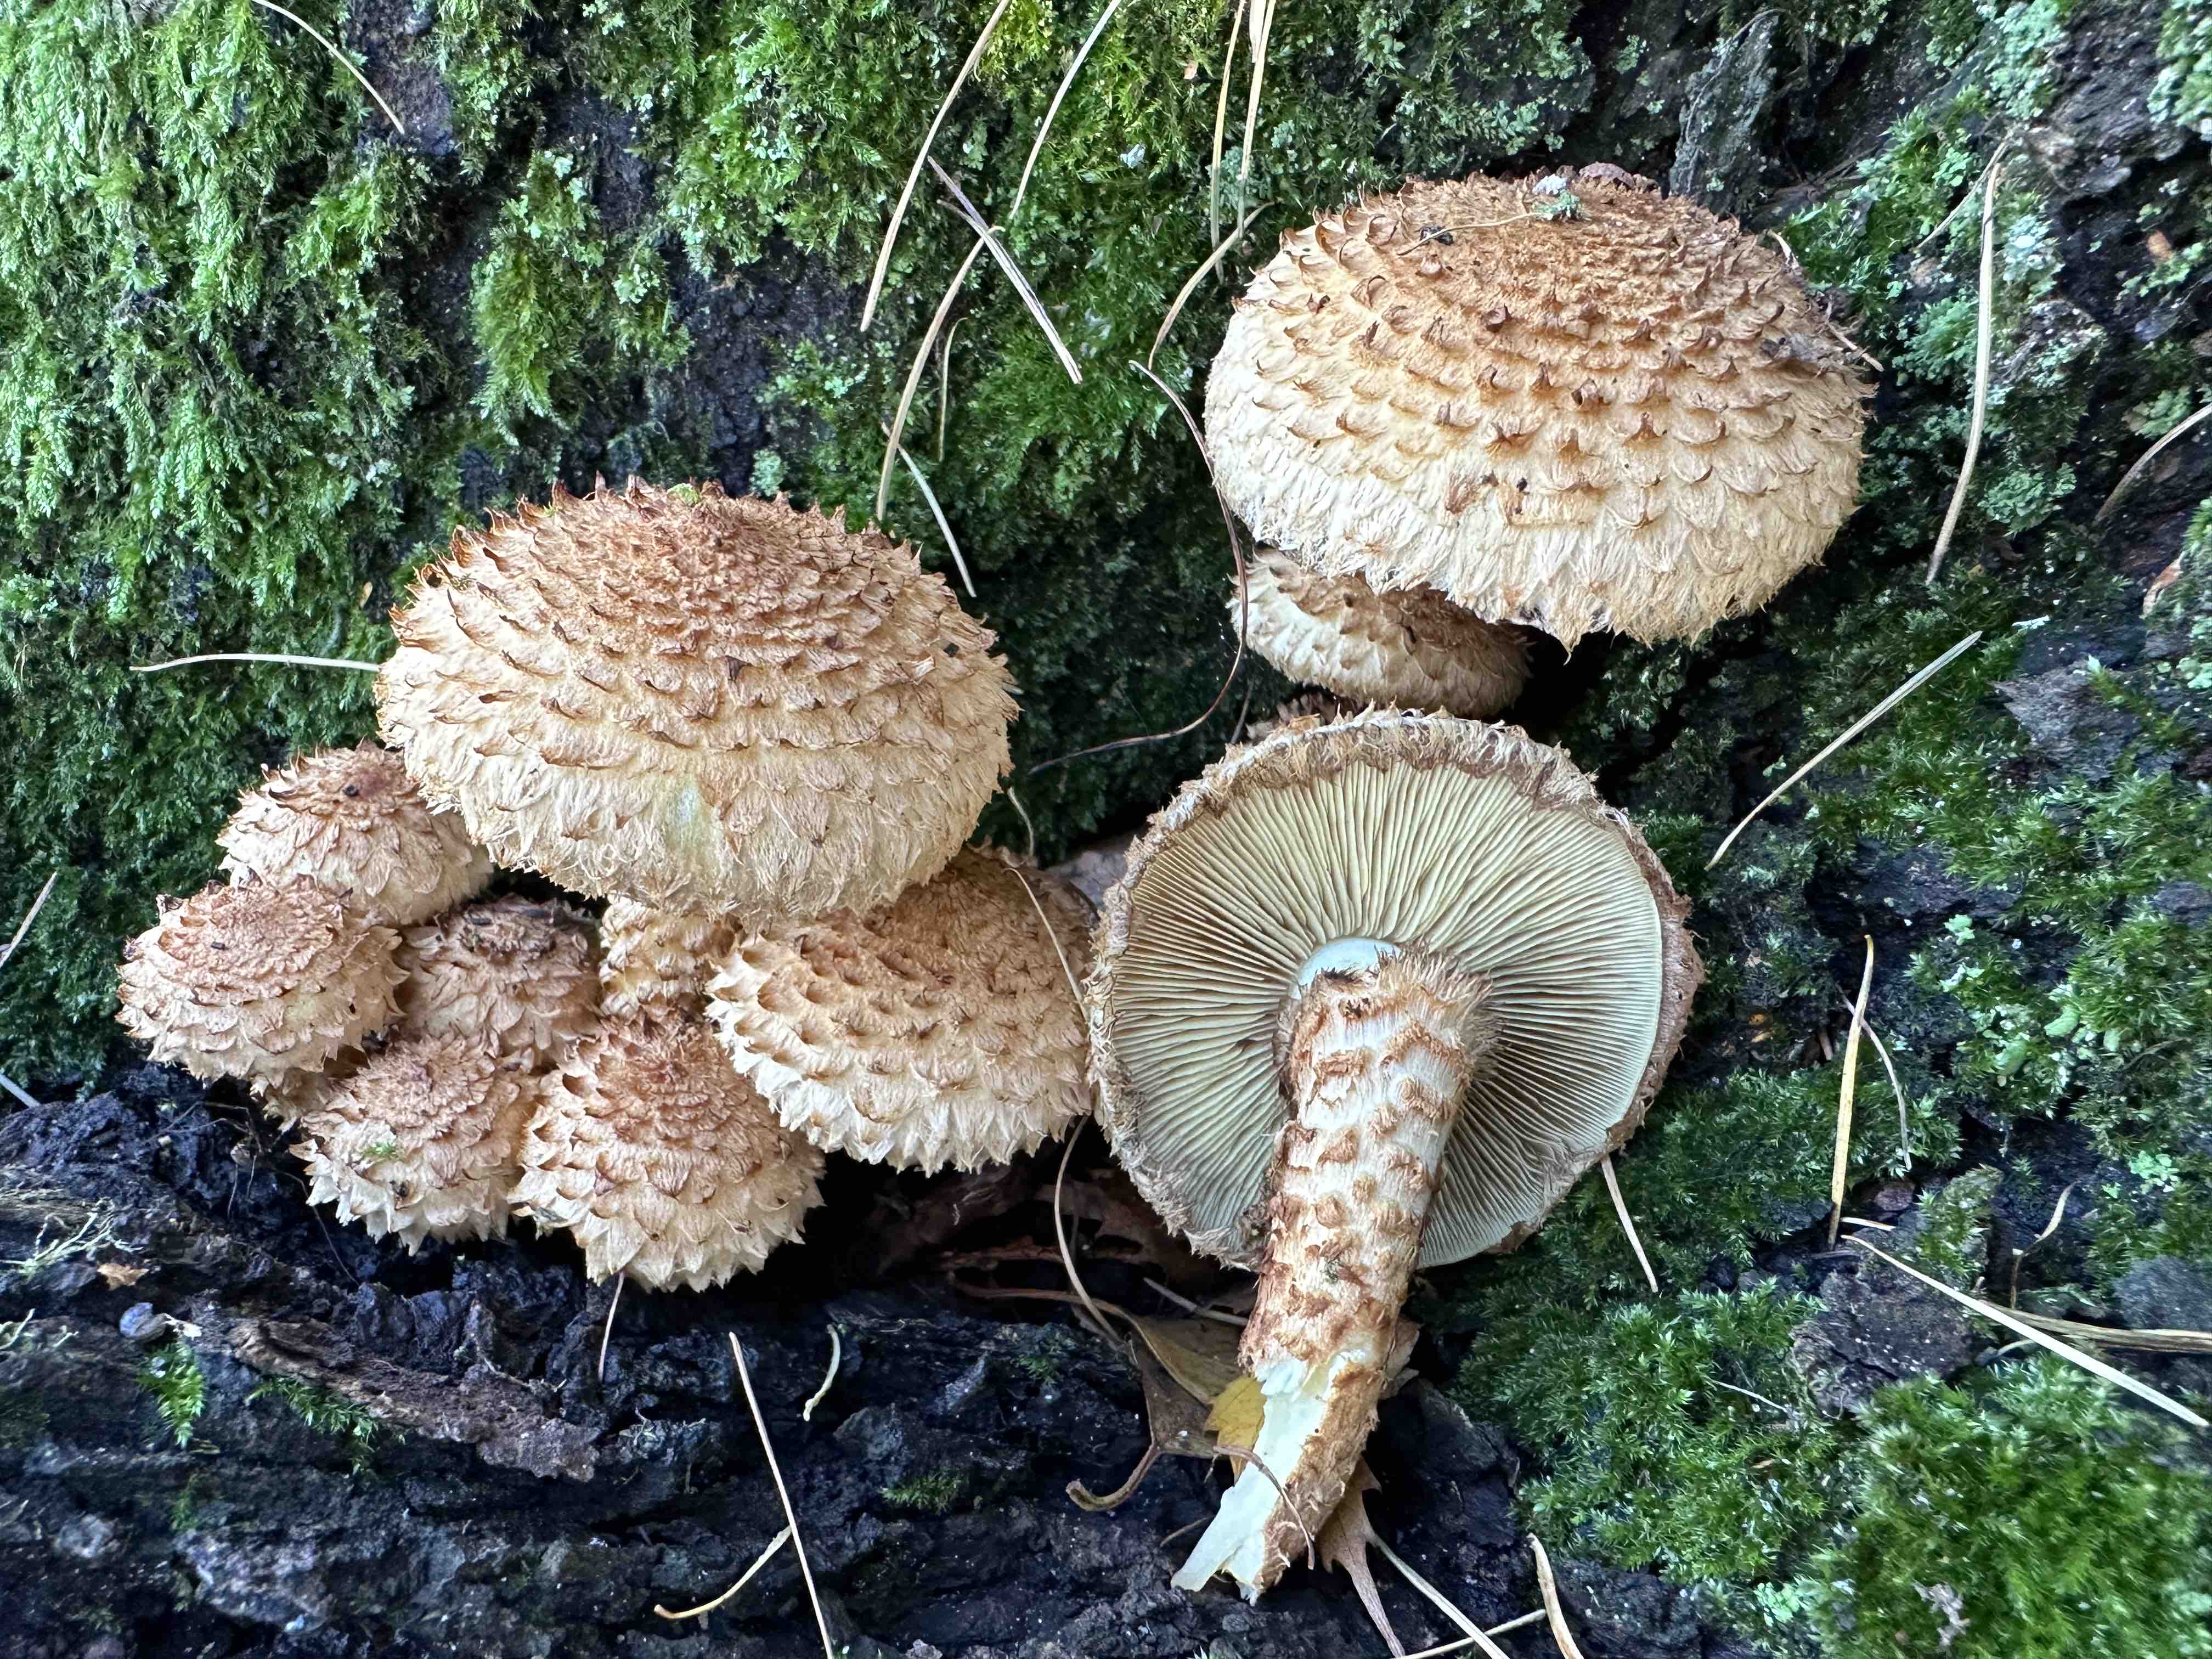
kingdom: Fungi
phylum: Basidiomycota
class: Agaricomycetes
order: Agaricales
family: Strophariaceae
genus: Pholiota
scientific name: Pholiota squarrosa
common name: krumskællet skælhat
